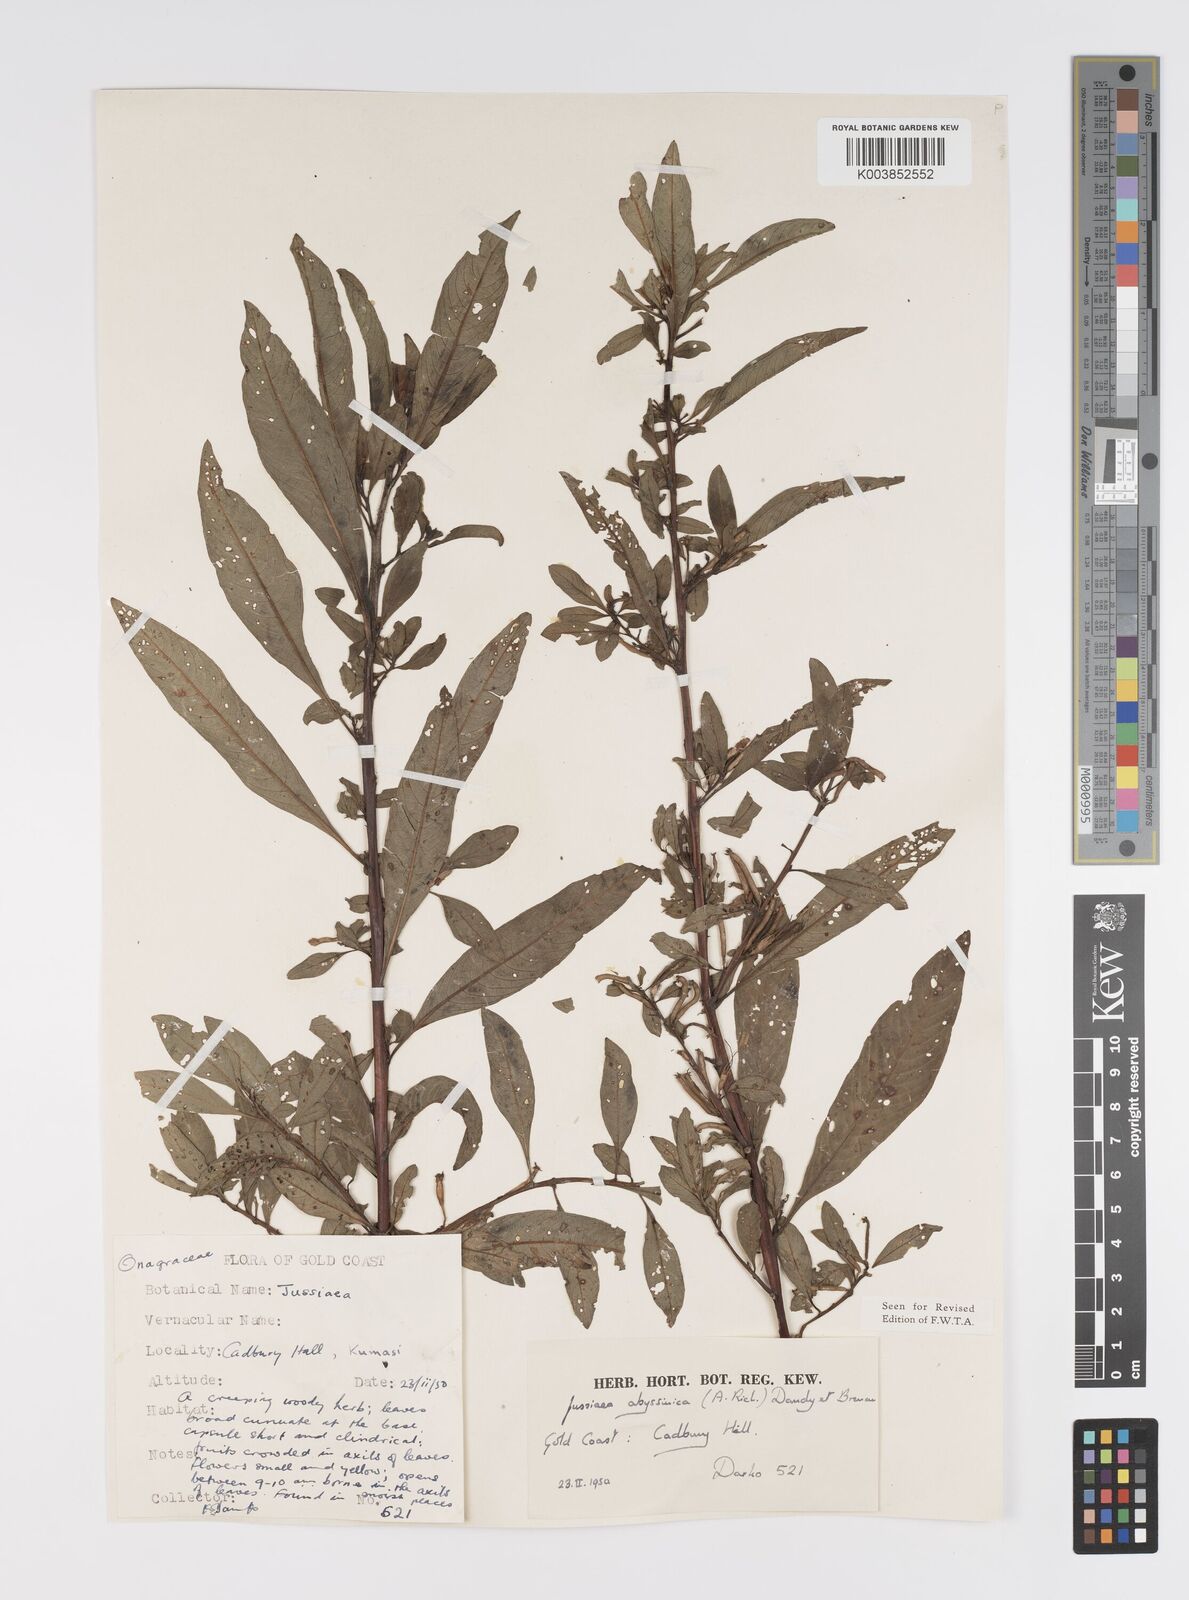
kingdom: Plantae
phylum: Tracheophyta
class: Magnoliopsida
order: Myrtales
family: Onagraceae
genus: Ludwigia
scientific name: Ludwigia abyssinica
